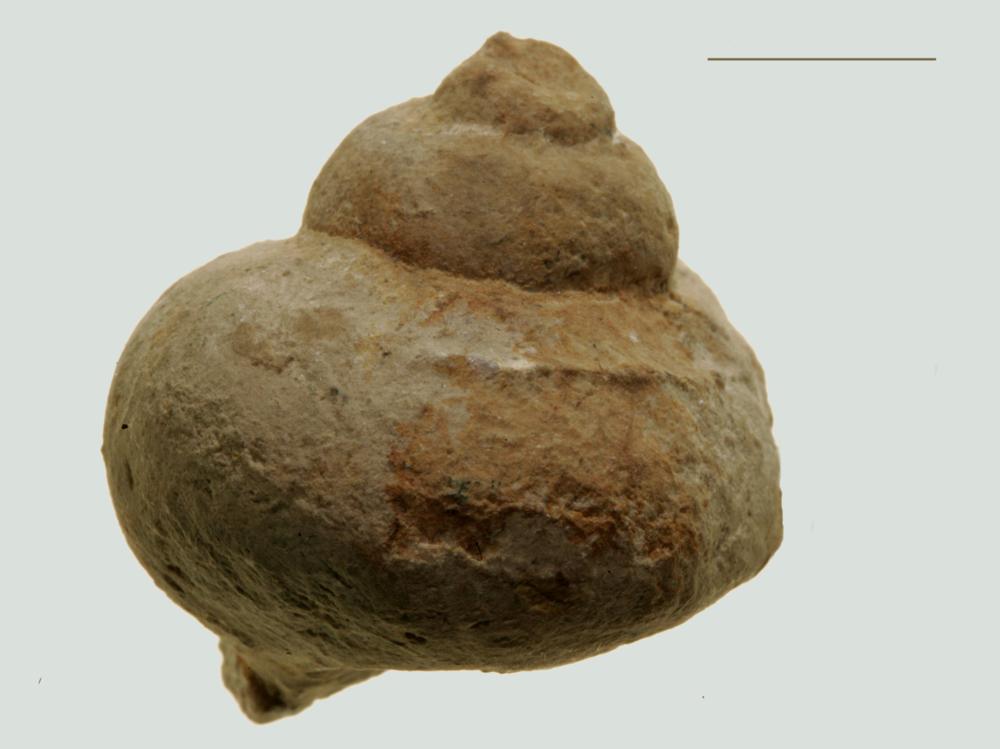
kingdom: Animalia
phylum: Mollusca
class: Gastropoda
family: Holopeidae
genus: Holopea
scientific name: Holopea eichwaldi
